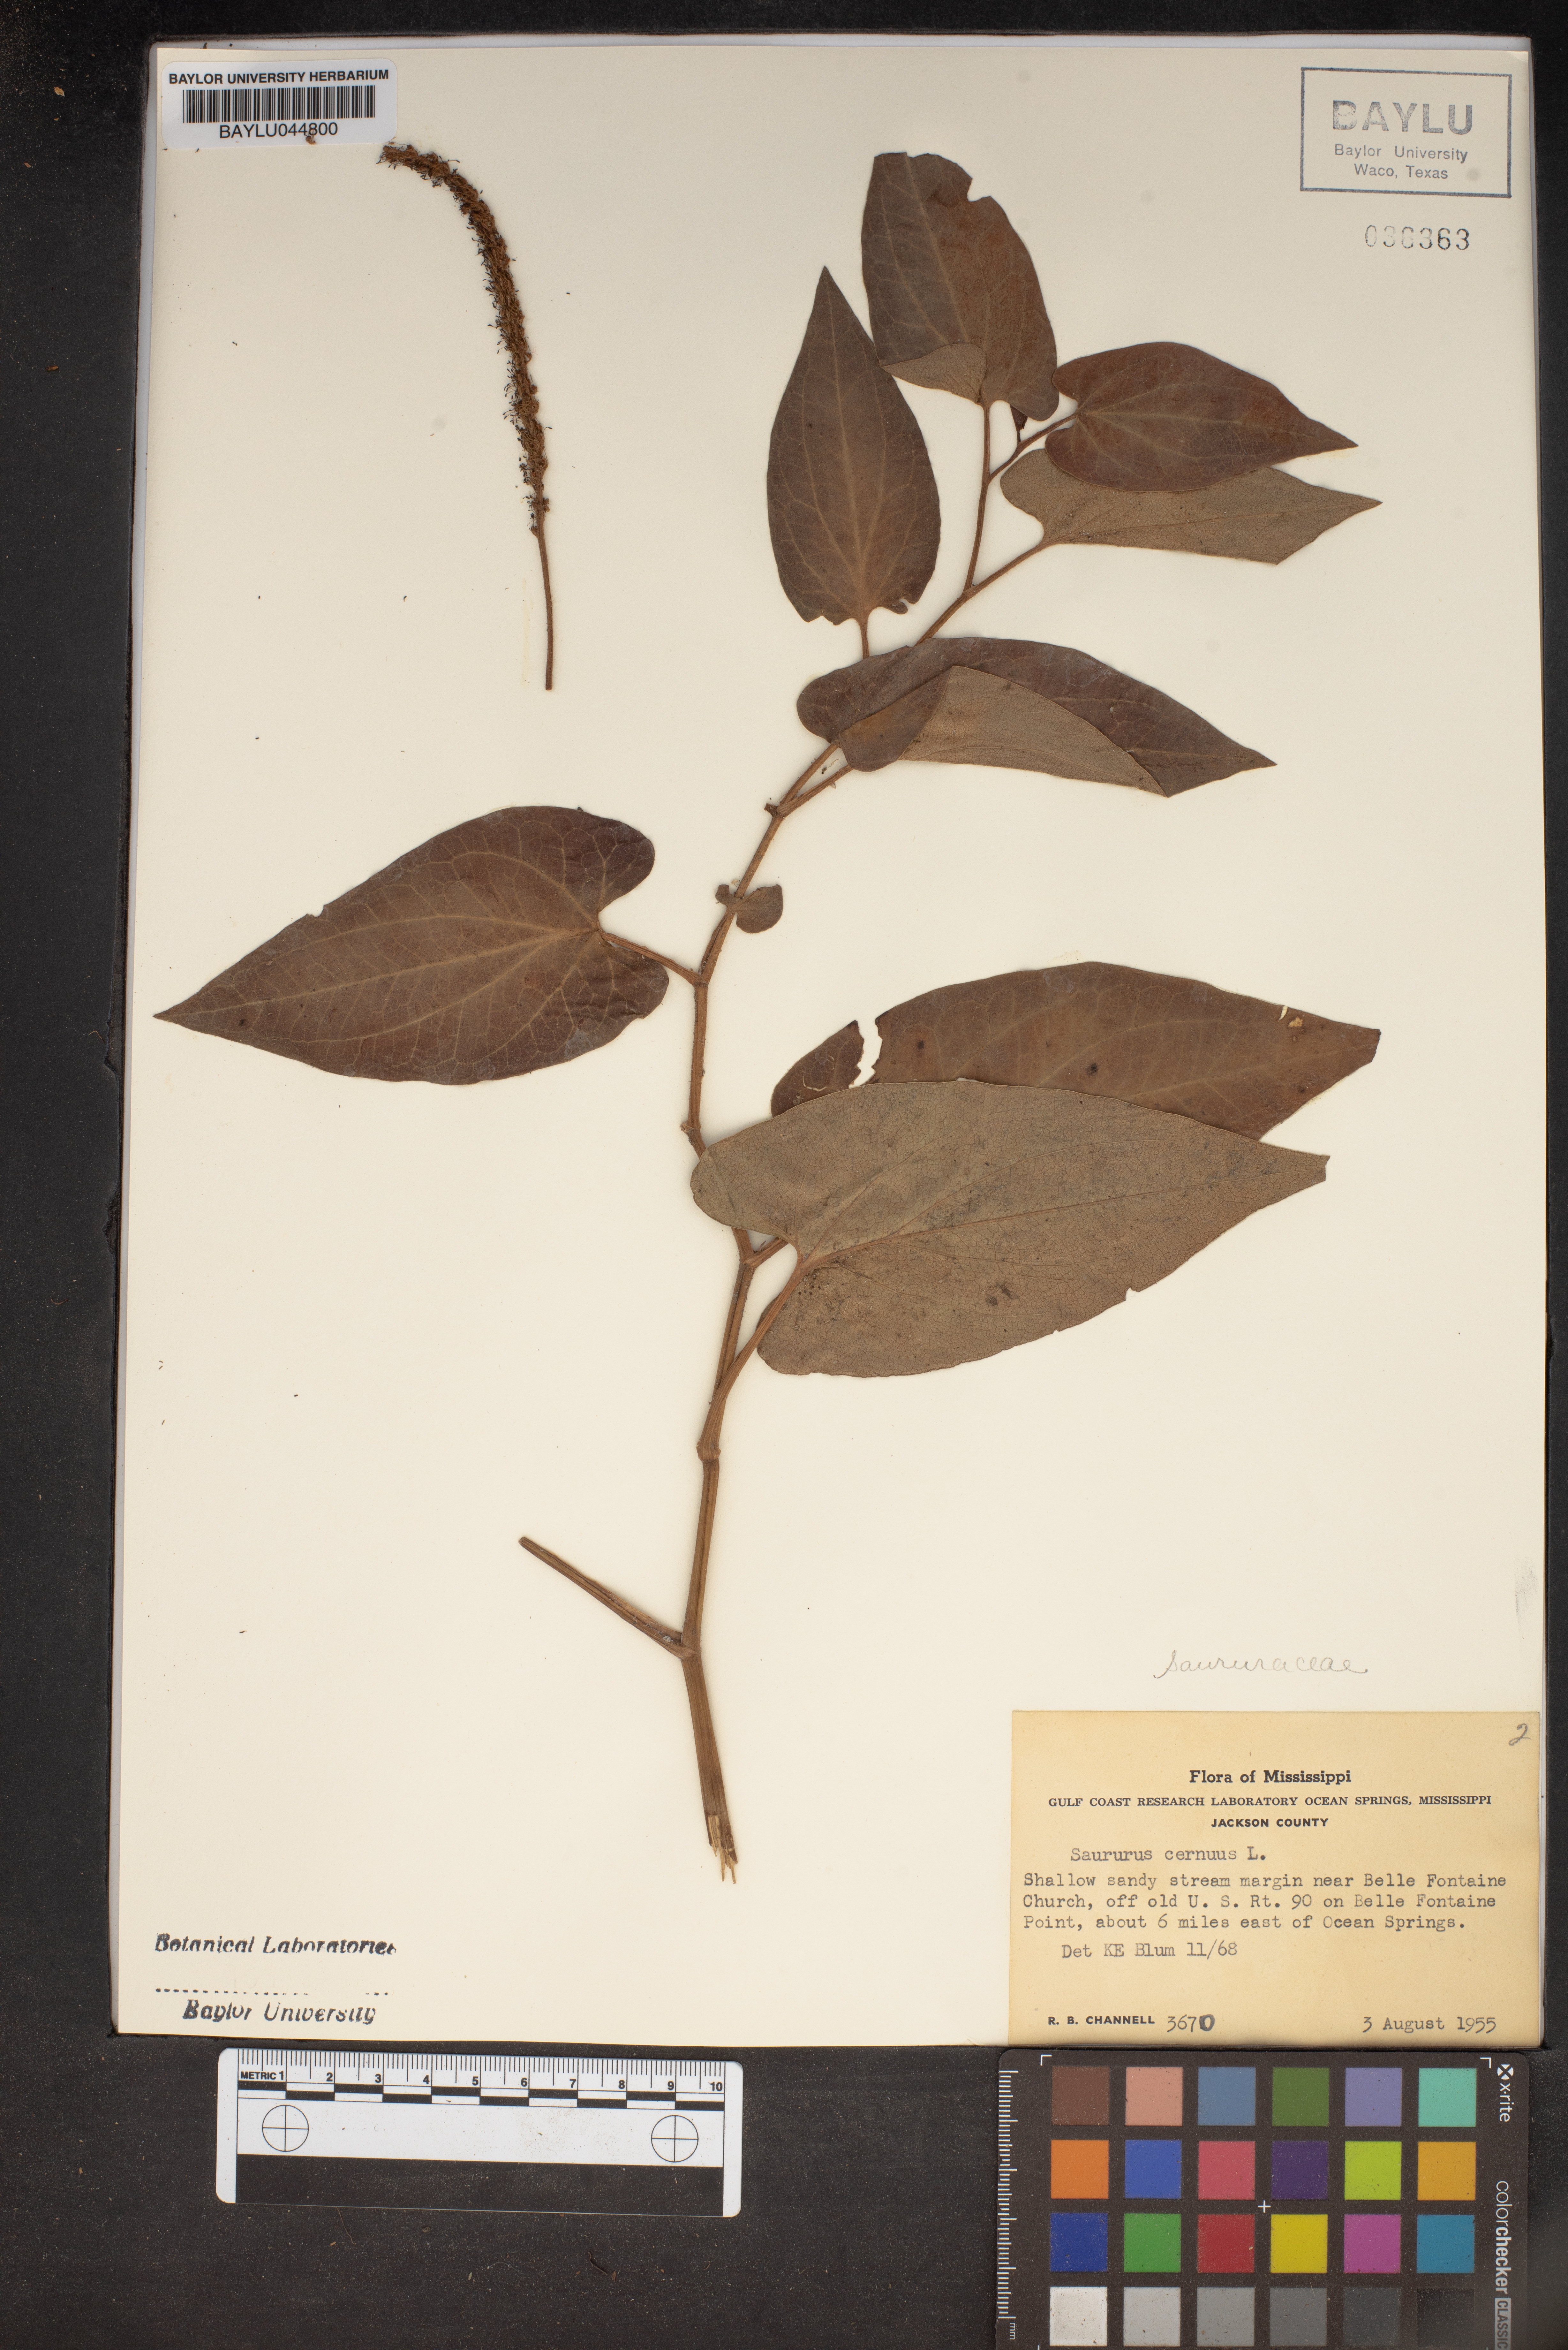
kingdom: Plantae
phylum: Tracheophyta
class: Magnoliopsida
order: Piperales
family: Saururaceae
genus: Saururus
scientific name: Saururus cernuus
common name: Lizard's-tail
